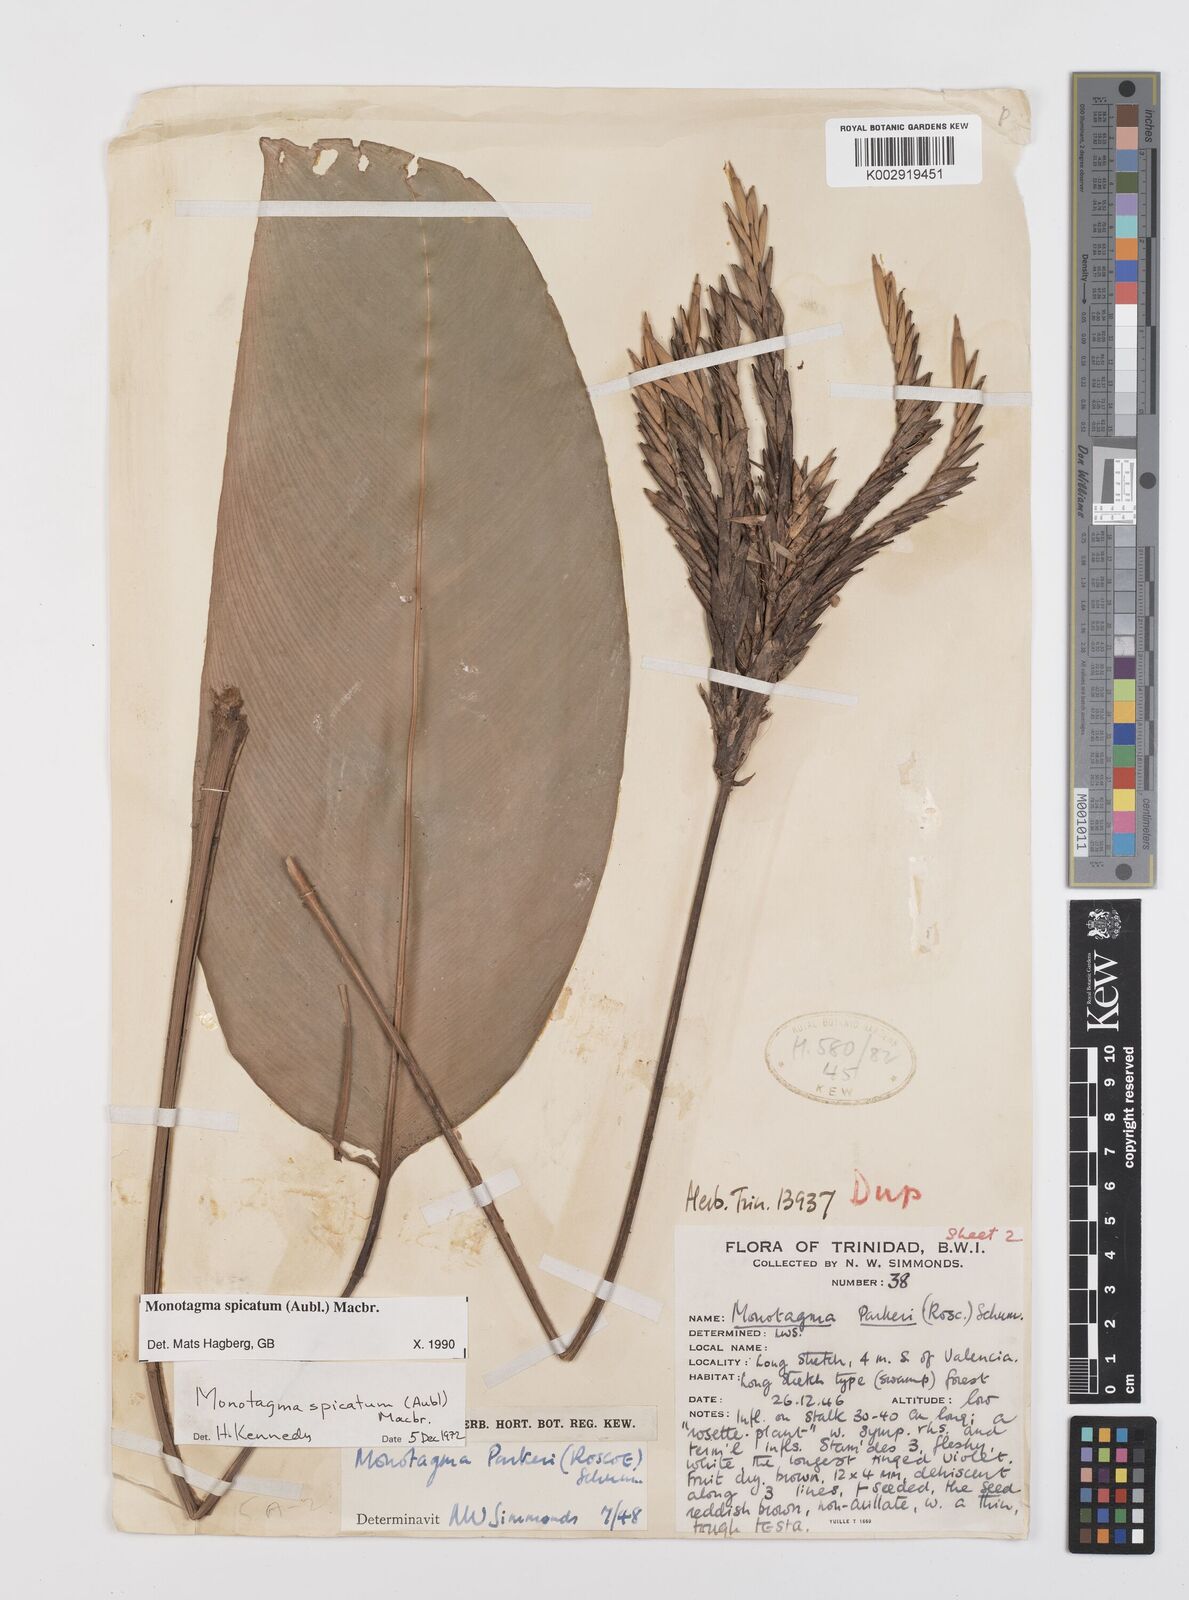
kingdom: Plantae
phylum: Tracheophyta
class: Liliopsida
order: Zingiberales
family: Marantaceae
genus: Monotagma
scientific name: Monotagma spicatum
